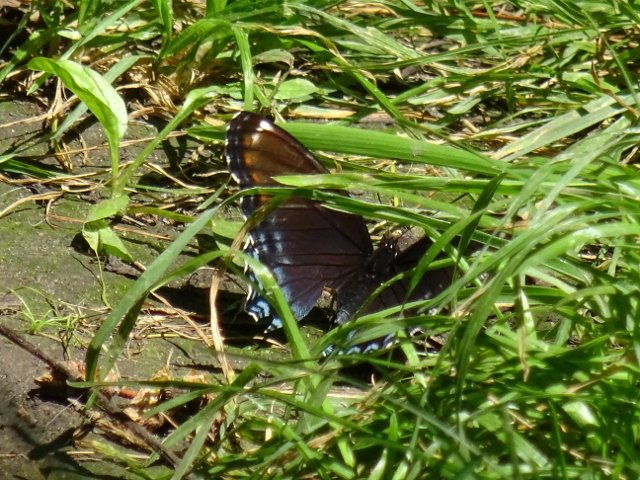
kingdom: Animalia
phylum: Arthropoda
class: Insecta
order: Lepidoptera
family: Nymphalidae
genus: Limenitis
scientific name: Limenitis astyanax
